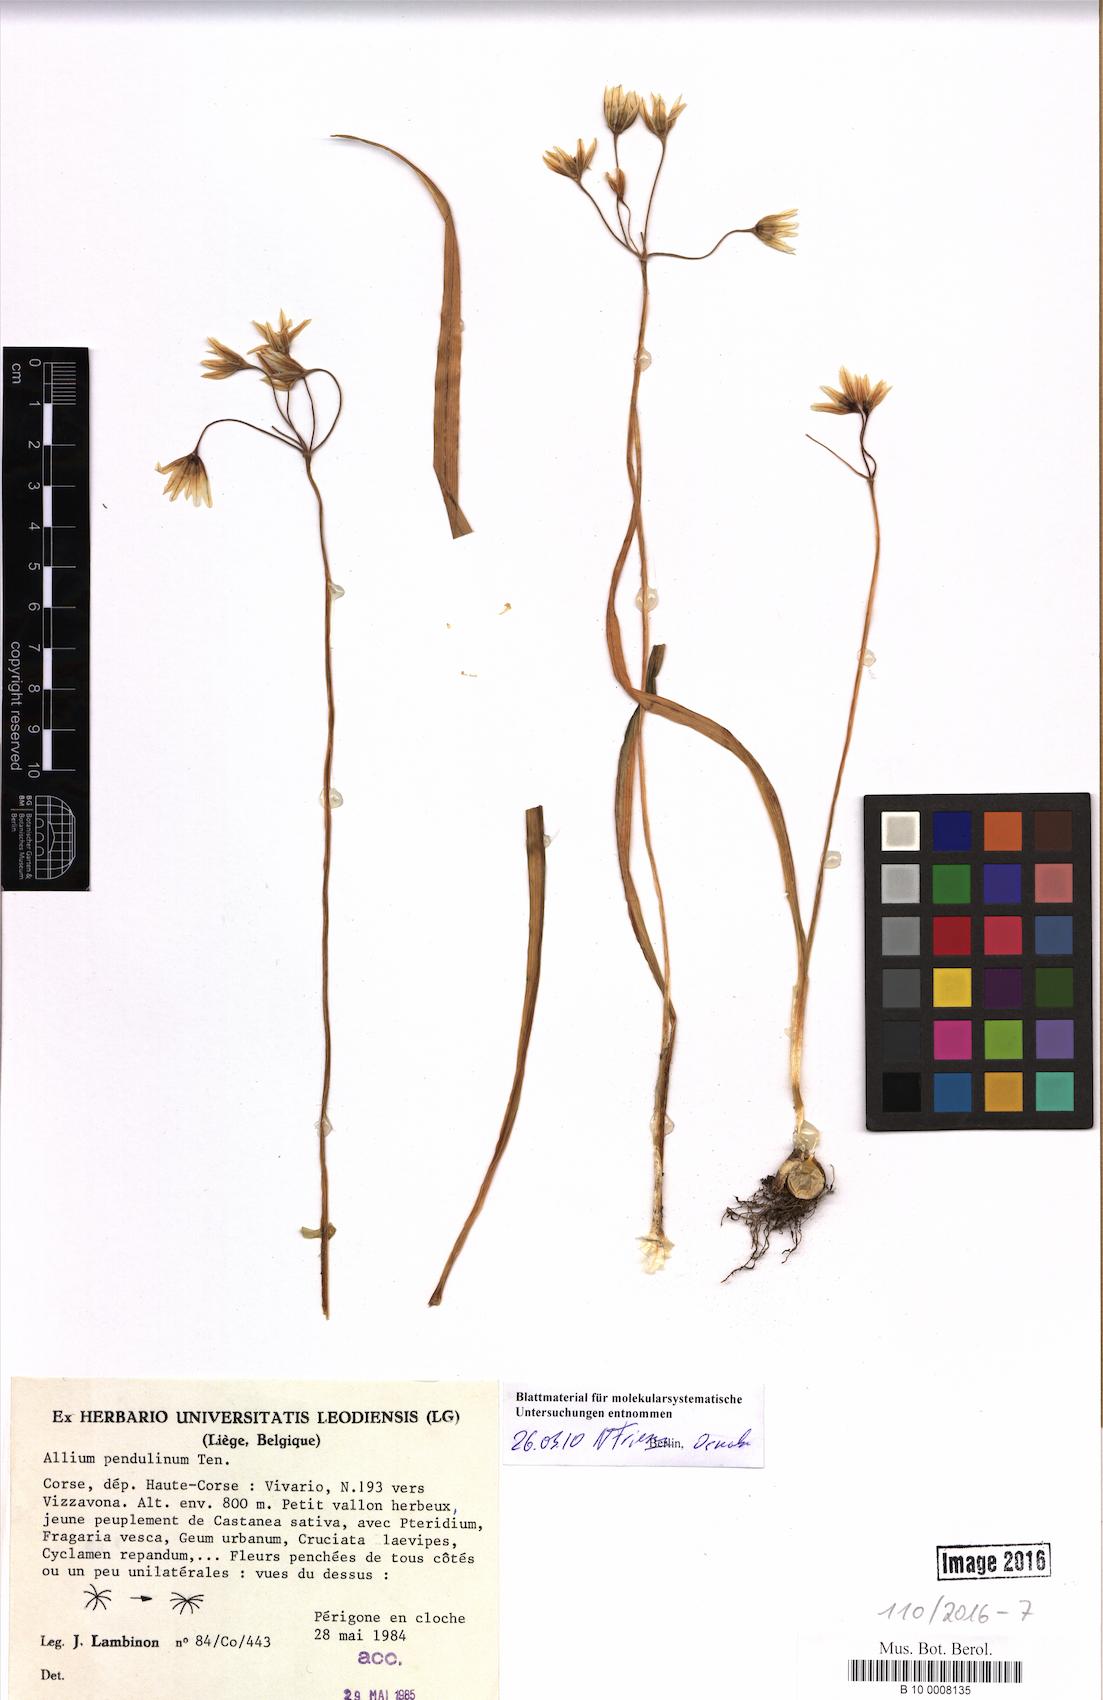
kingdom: Plantae
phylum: Tracheophyta
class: Liliopsida
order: Asparagales
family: Amaryllidaceae
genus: Allium
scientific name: Allium pendulinum
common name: Italian garlic
